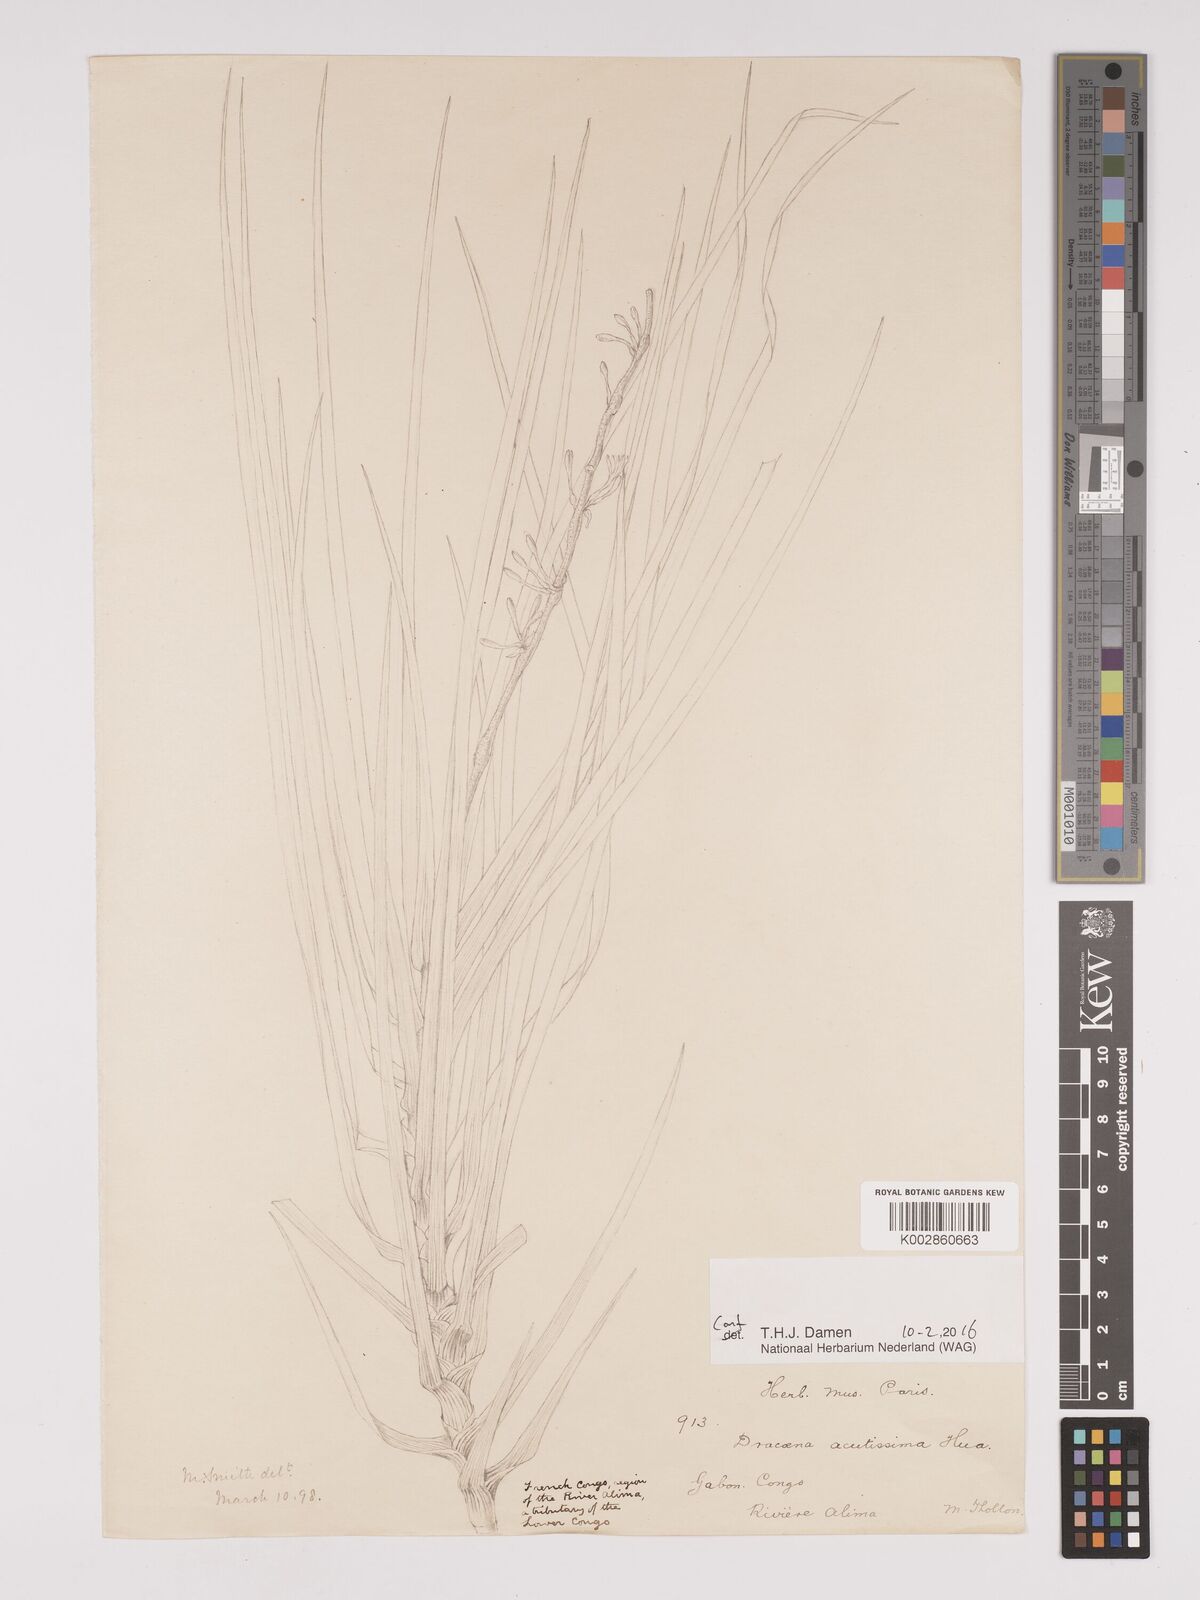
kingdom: Plantae
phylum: Tracheophyta
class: Liliopsida
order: Asparagales
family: Asparagaceae
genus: Dracaena
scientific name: Dracaena acutissima
